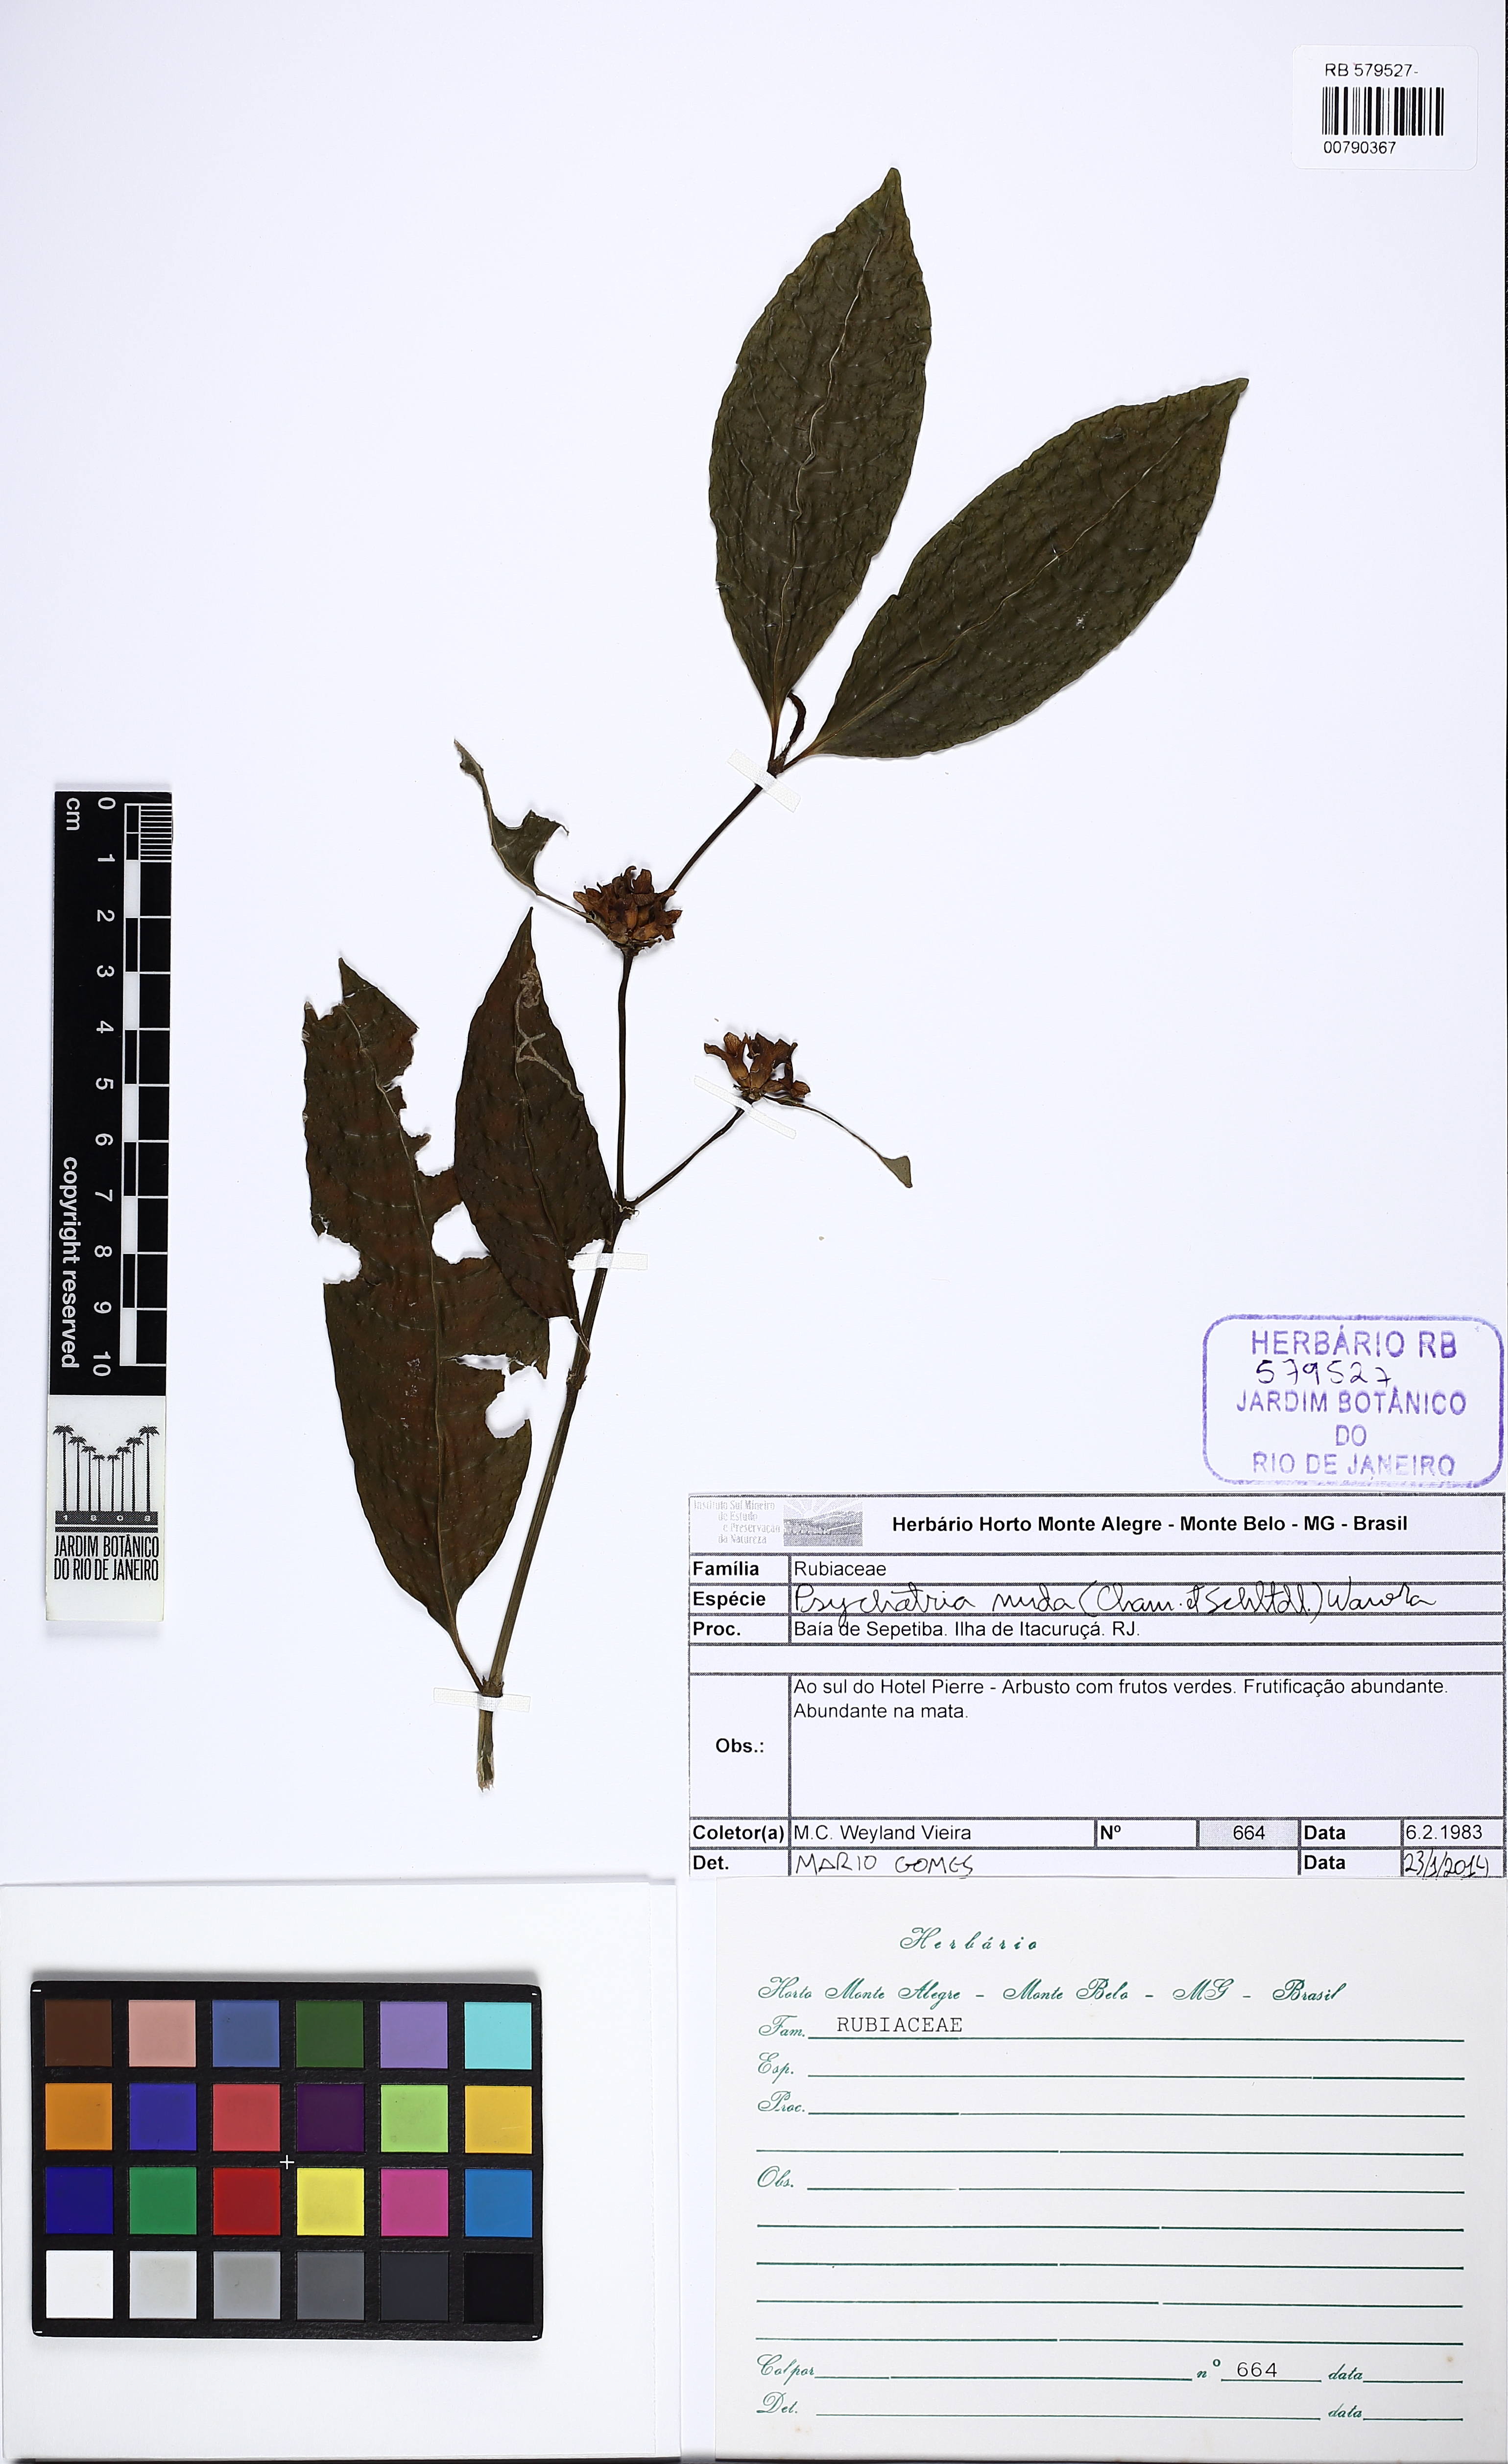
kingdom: Plantae
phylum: Tracheophyta
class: Magnoliopsida
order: Gentianales
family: Rubiaceae
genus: Psychotria
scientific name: Psychotria nuda
